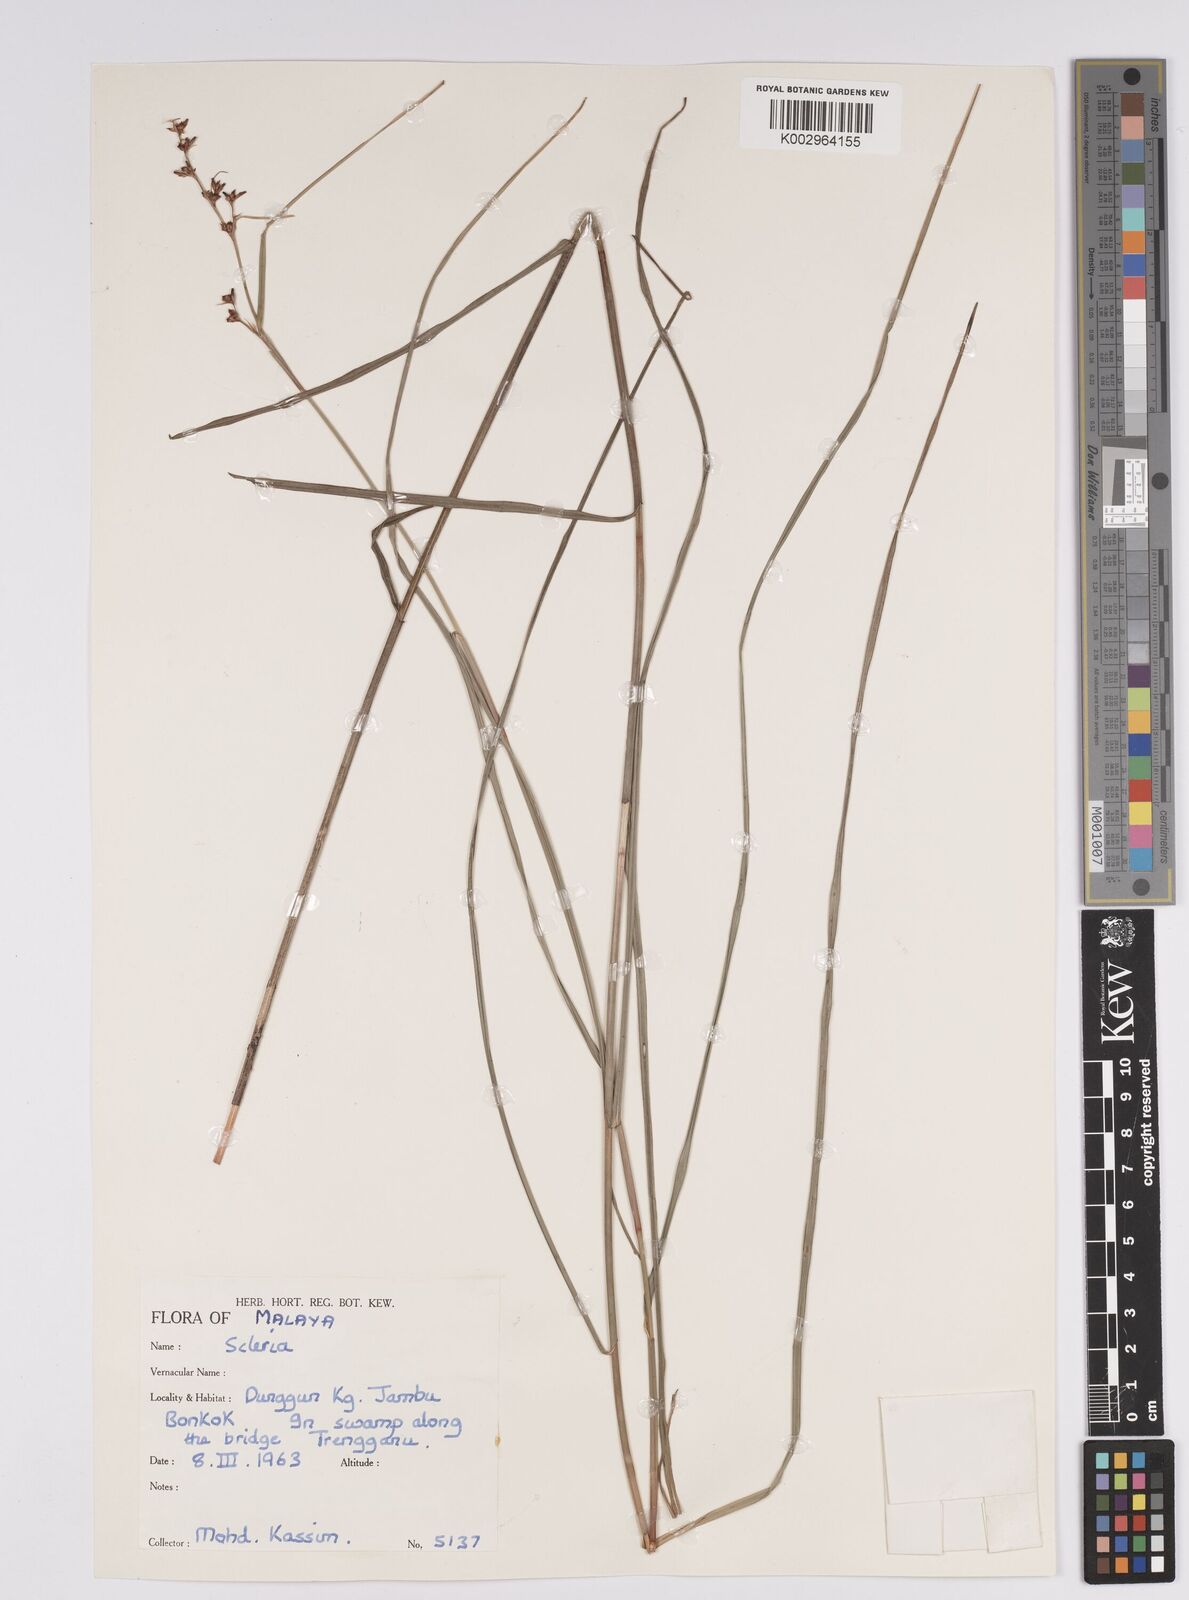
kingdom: Plantae
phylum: Tracheophyta
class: Liliopsida
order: Poales
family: Cyperaceae
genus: Scleria
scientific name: Scleria
